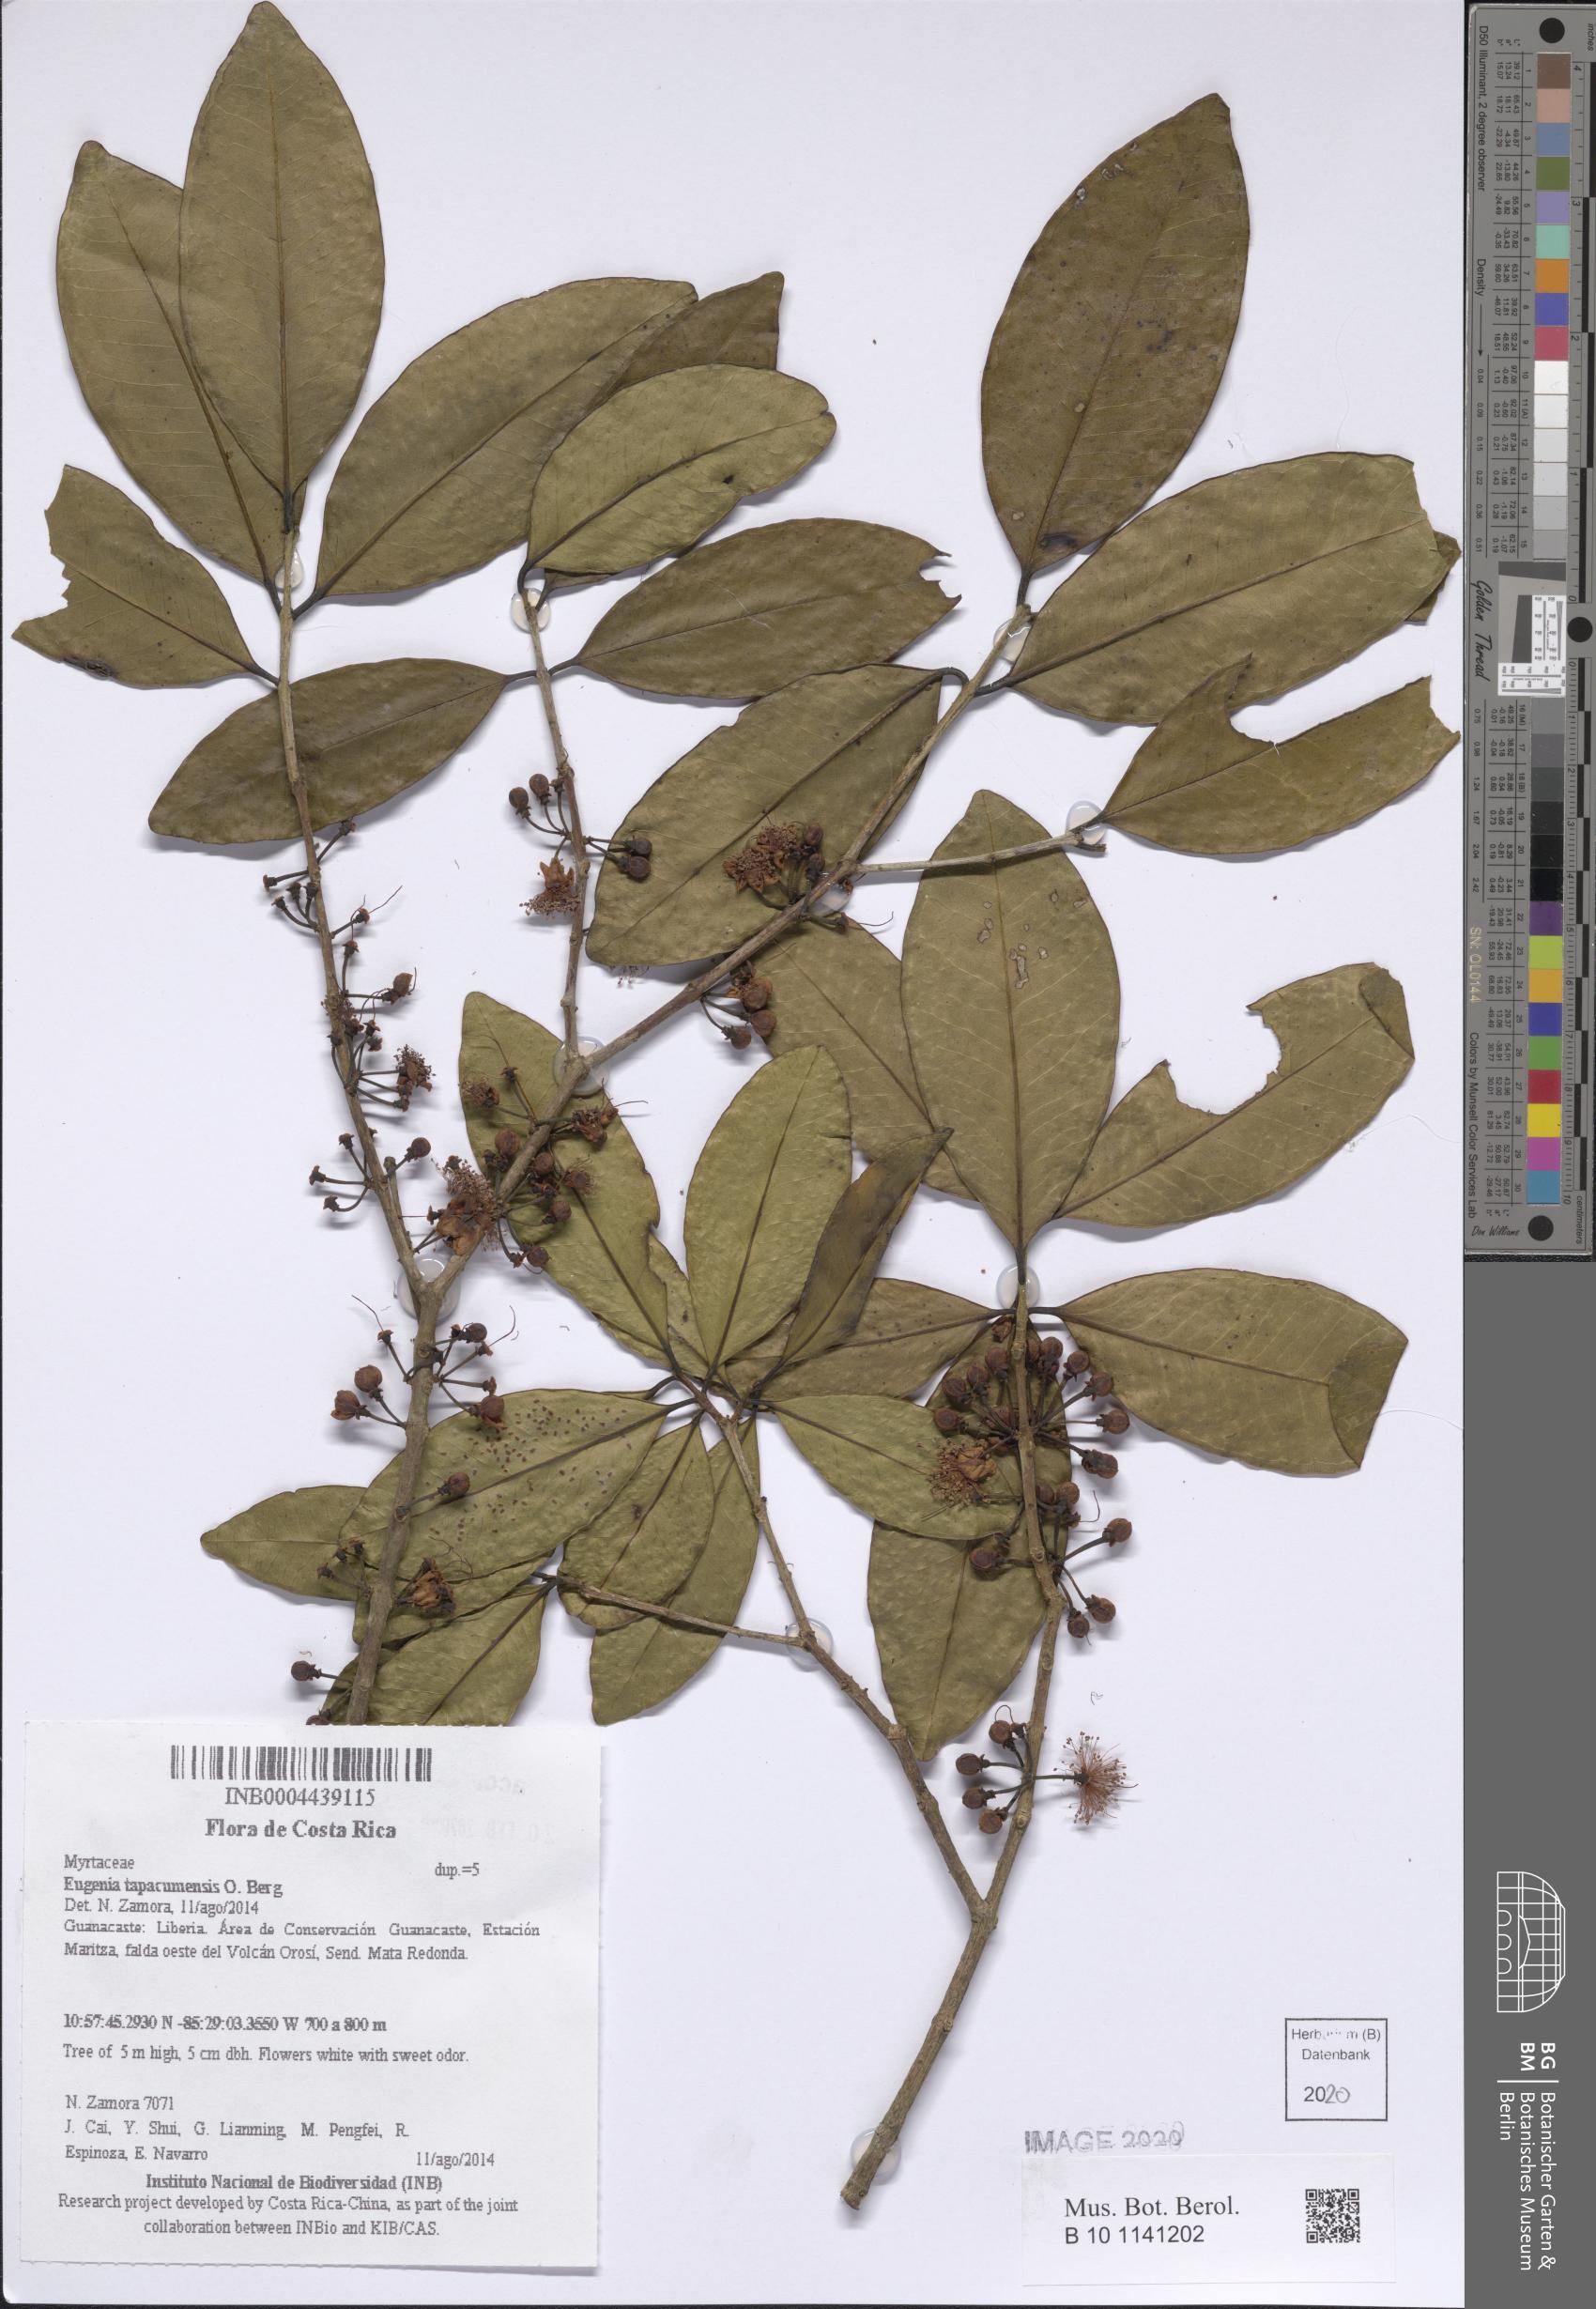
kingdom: Plantae
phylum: Tracheophyta
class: Magnoliopsida
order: Myrtales
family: Myrtaceae
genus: Eugenia
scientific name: Eugenia tapacumensis
